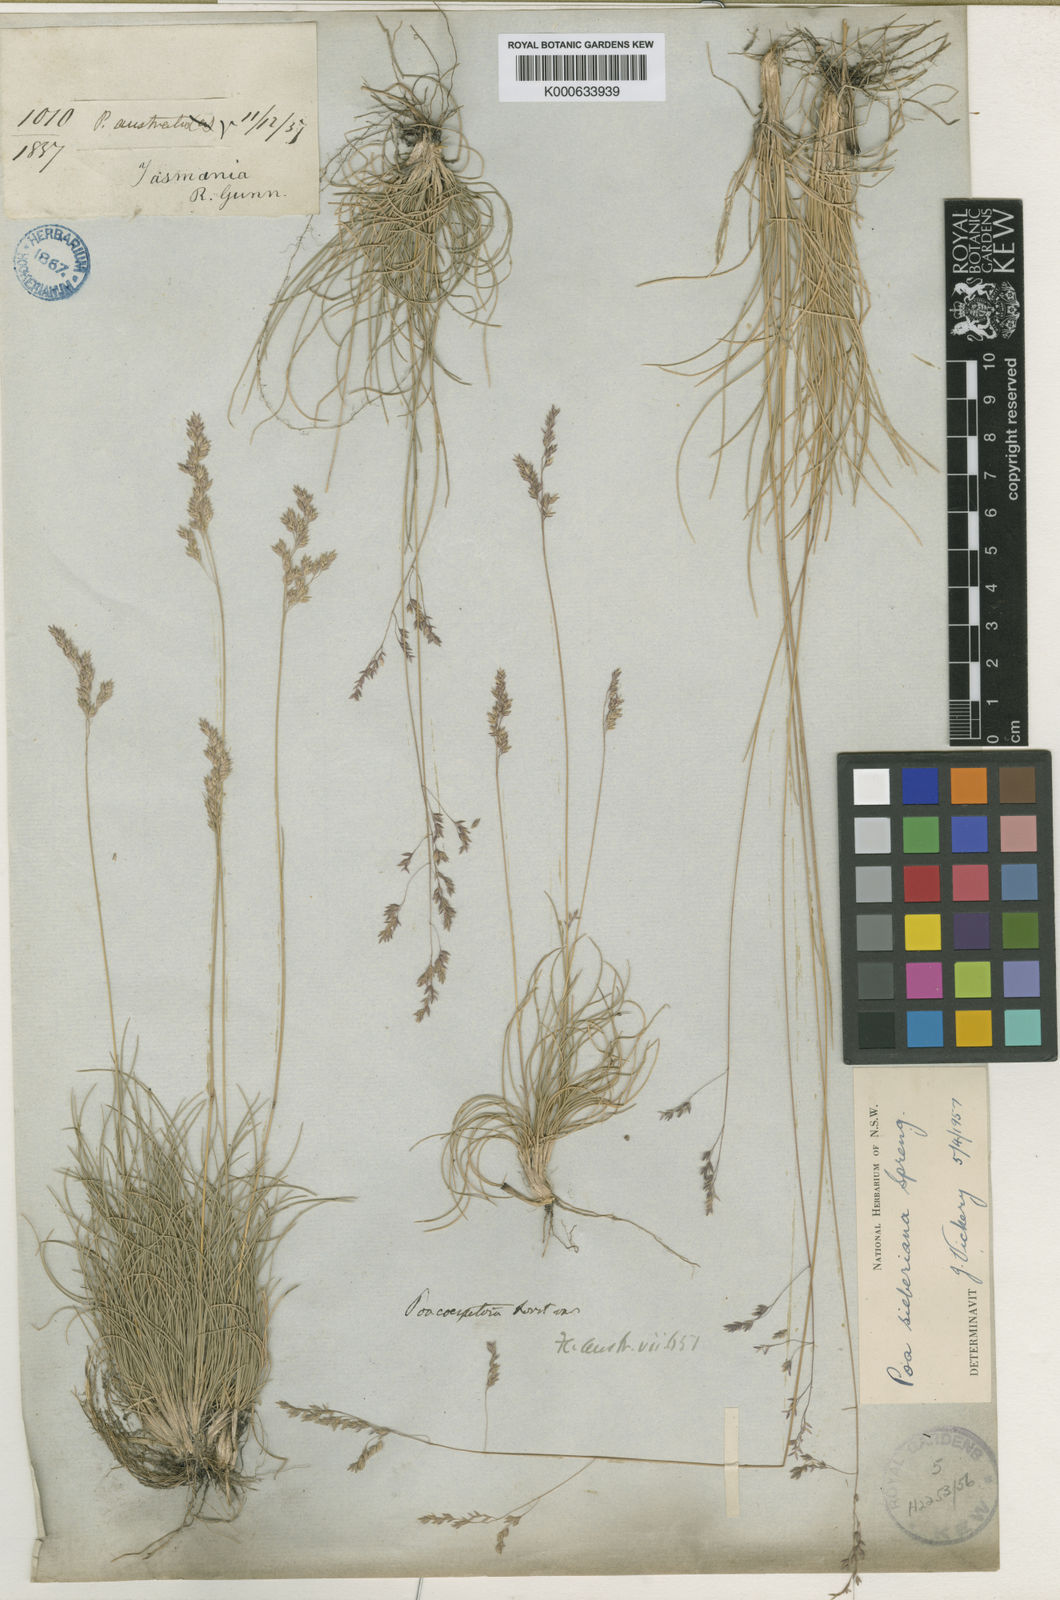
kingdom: Plantae
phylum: Tracheophyta
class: Liliopsida
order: Poales
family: Poaceae
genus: Poa
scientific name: Poa sieberiana
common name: Tussock poa
